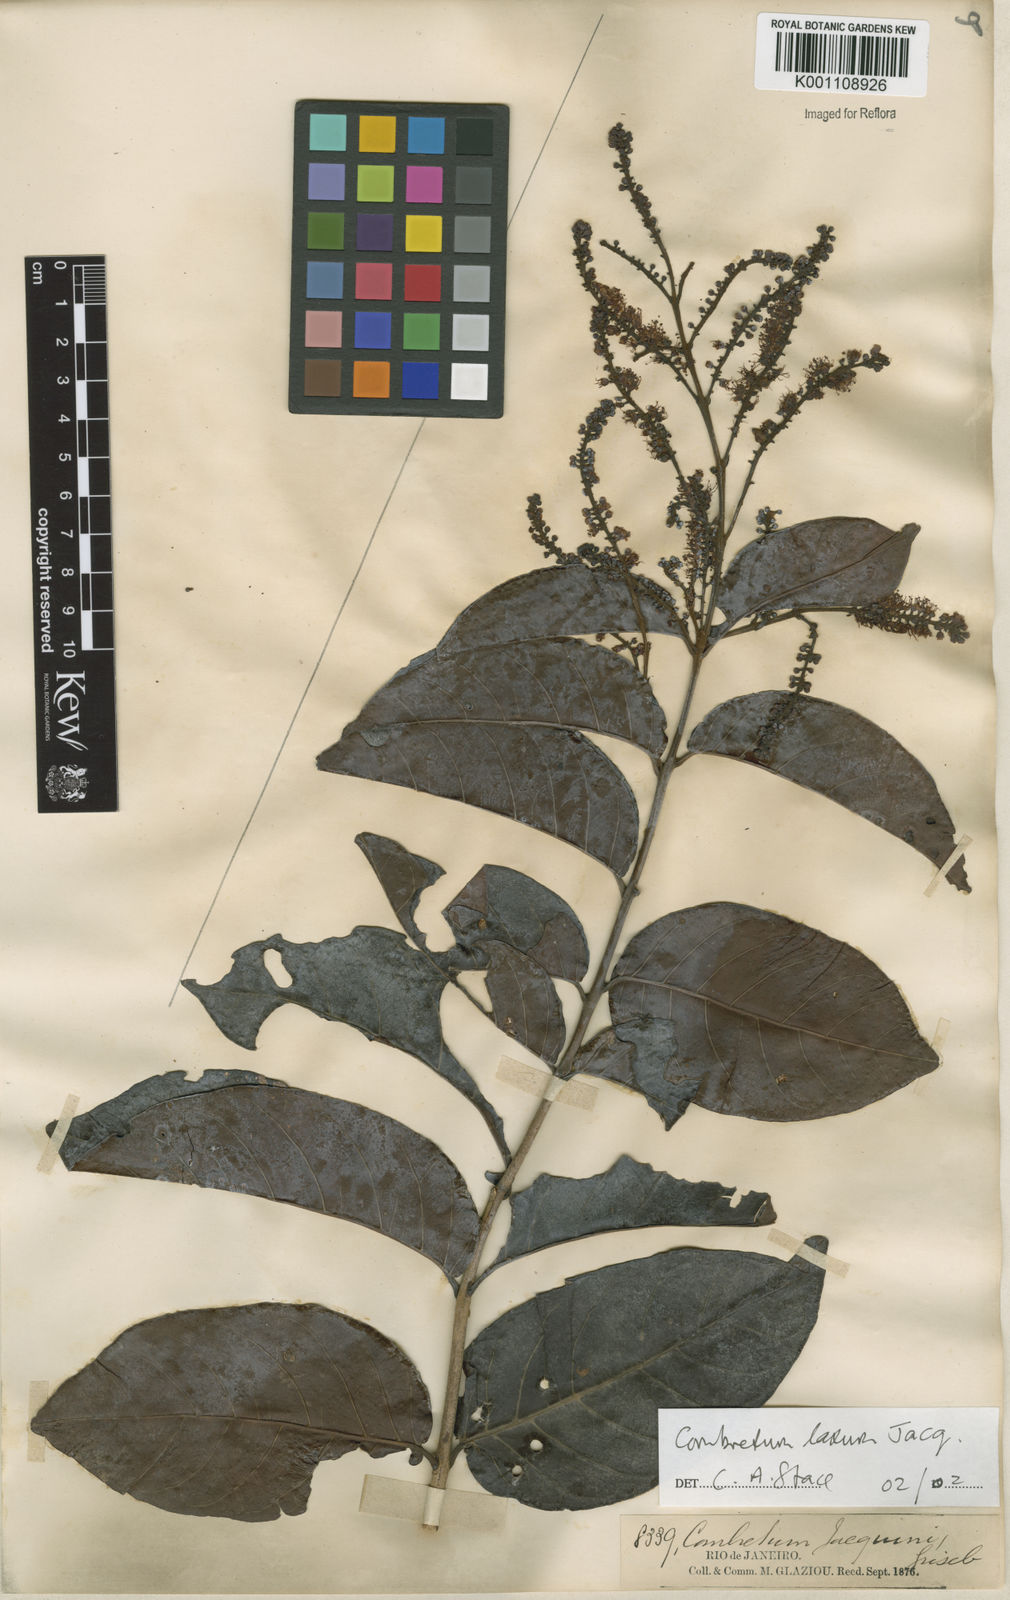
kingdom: Plantae
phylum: Tracheophyta
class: Magnoliopsida
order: Myrtales
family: Combretaceae
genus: Combretum
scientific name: Combretum laxum
